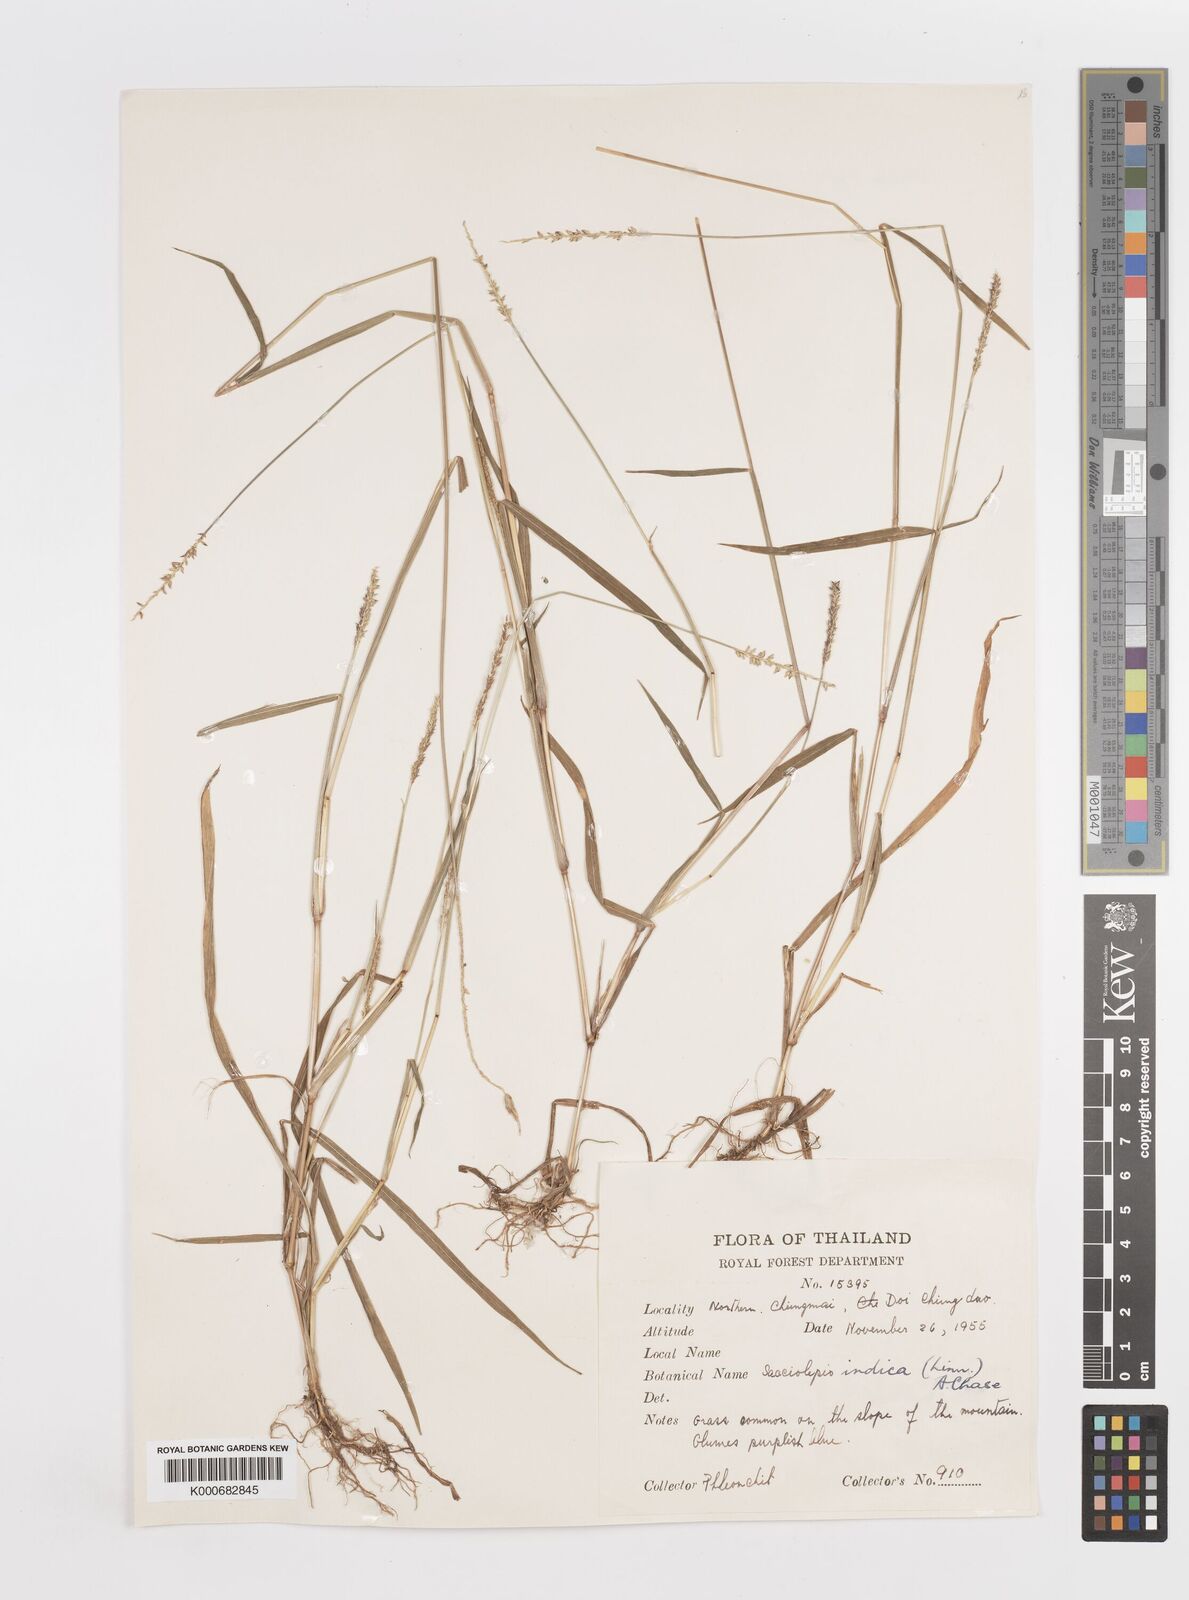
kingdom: Plantae
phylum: Tracheophyta
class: Liliopsida
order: Poales
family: Poaceae
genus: Sacciolepis
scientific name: Sacciolepis indica
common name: Glenwoodgrass
